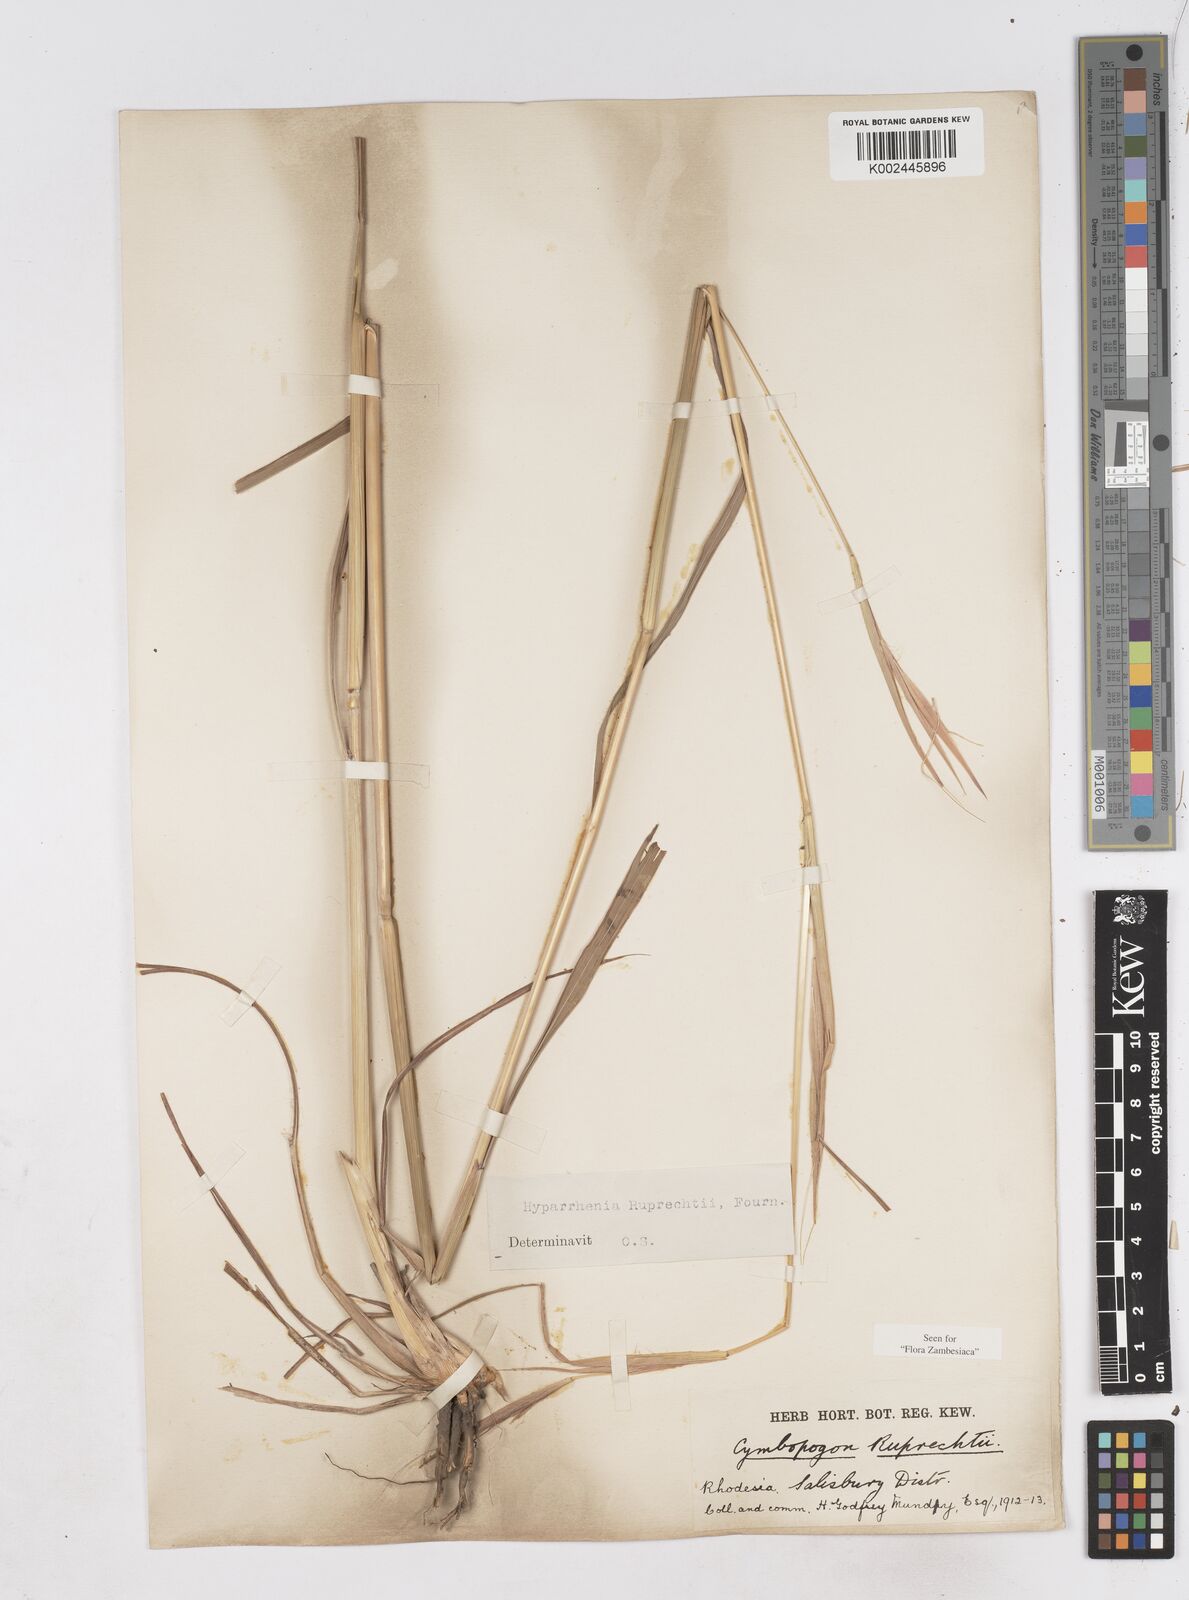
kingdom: Plantae
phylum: Tracheophyta
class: Liliopsida
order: Poales
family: Poaceae
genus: Hyperthelia
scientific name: Hyperthelia dissoluta
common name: Yellow thatching grass
